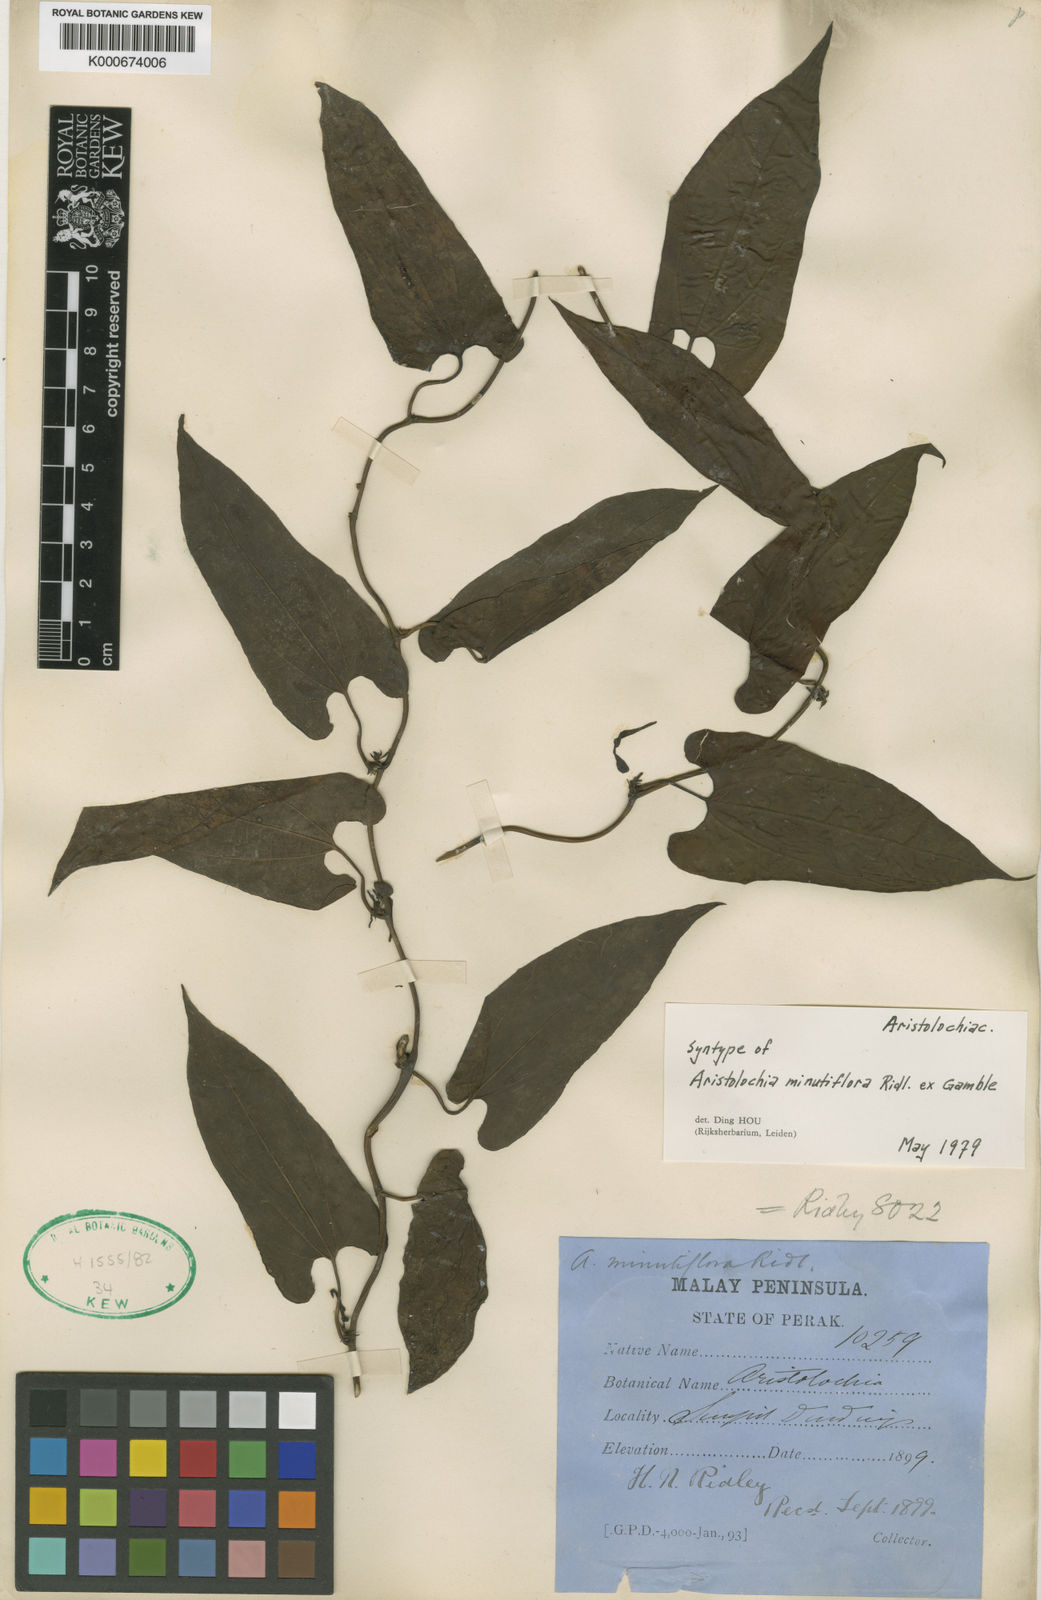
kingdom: Plantae
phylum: Tracheophyta
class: Magnoliopsida
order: Piperales
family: Aristolochiaceae
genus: Aristolochia
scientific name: Aristolochia minutiflora
